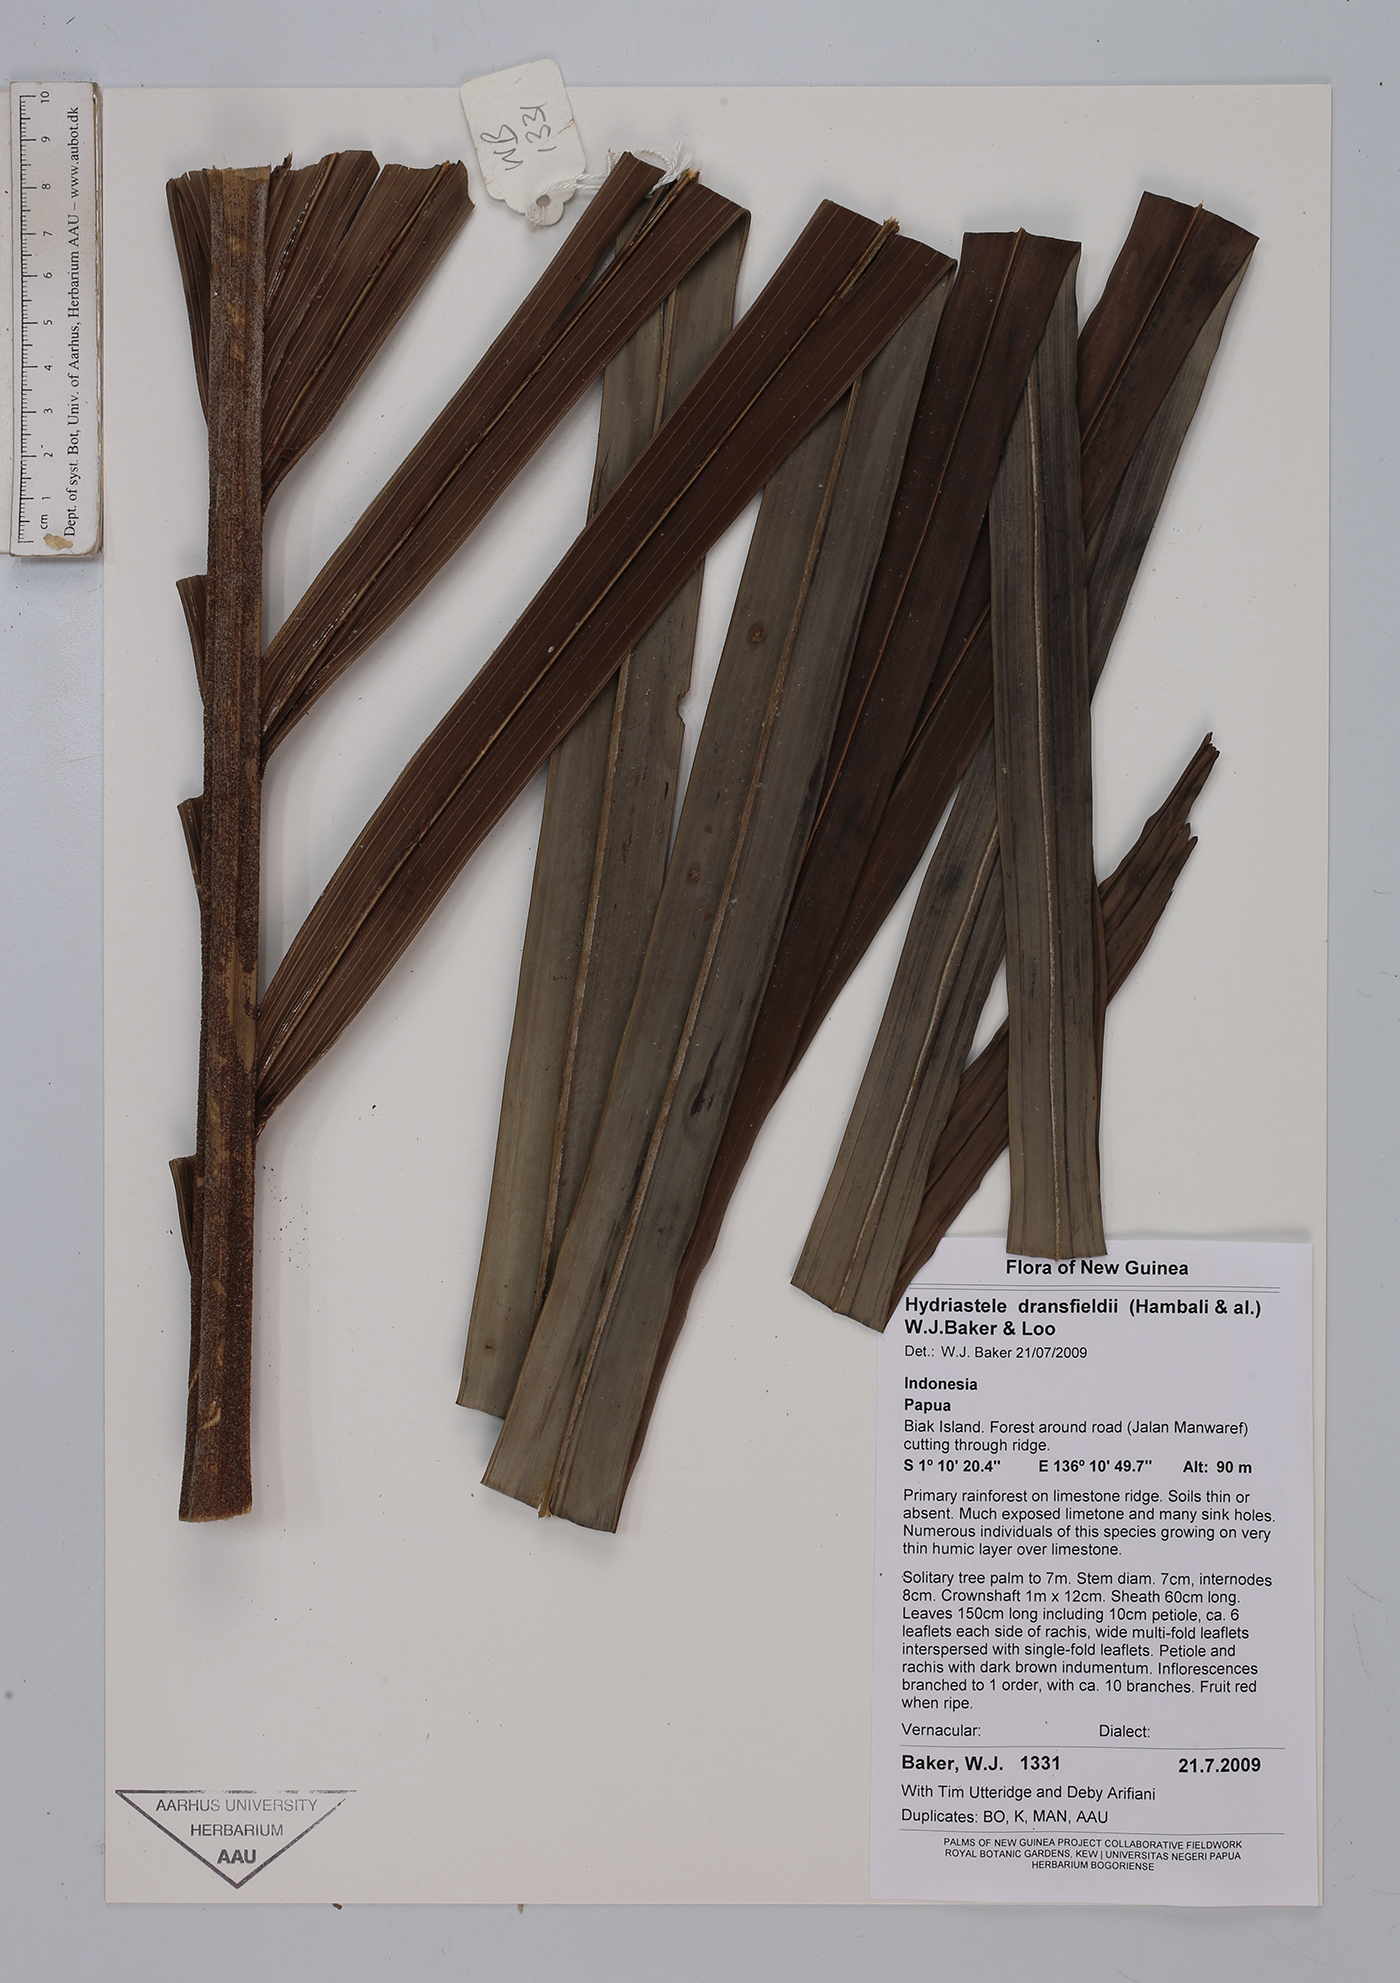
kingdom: Plantae
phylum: Tracheophyta
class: Liliopsida
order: Arecales
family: Arecaceae
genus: Hydriastele
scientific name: Hydriastele dransfieldii
